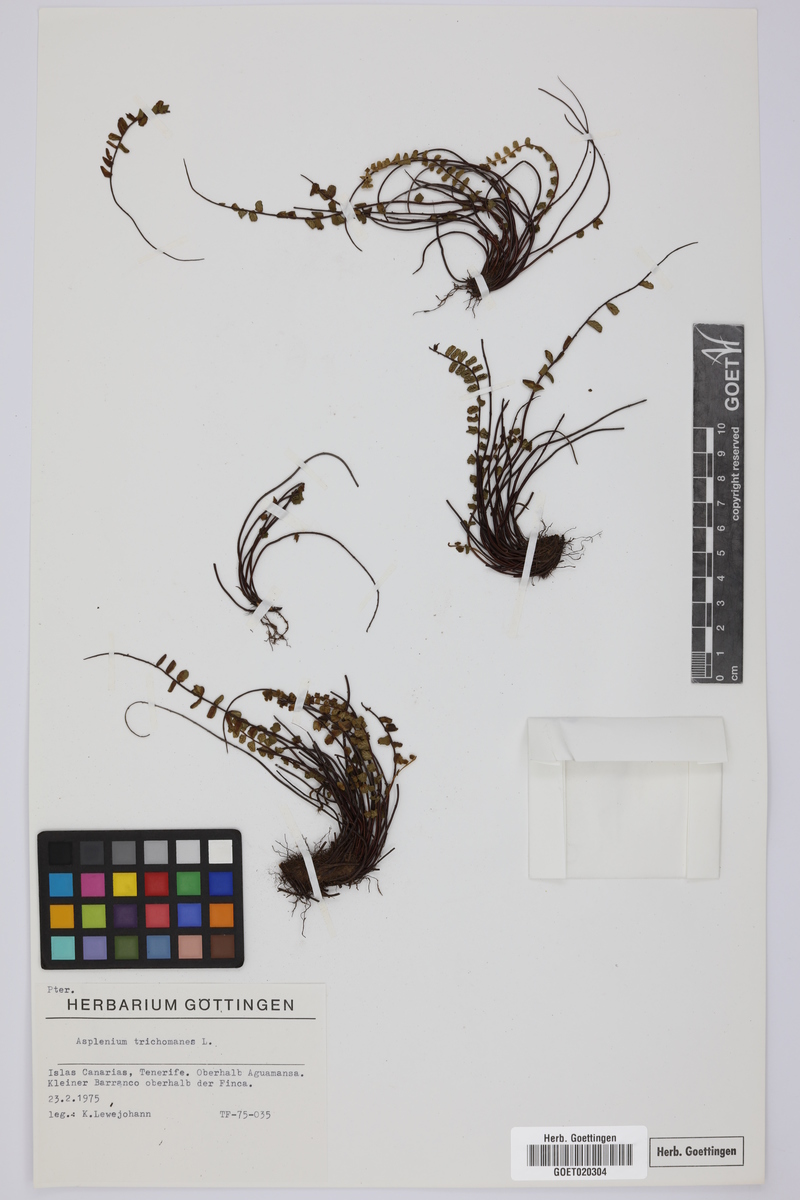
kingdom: Plantae
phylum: Tracheophyta
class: Polypodiopsida
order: Polypodiales
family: Aspleniaceae
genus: Asplenium
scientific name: Asplenium trichomanes
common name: Maidenhair spleenwort
